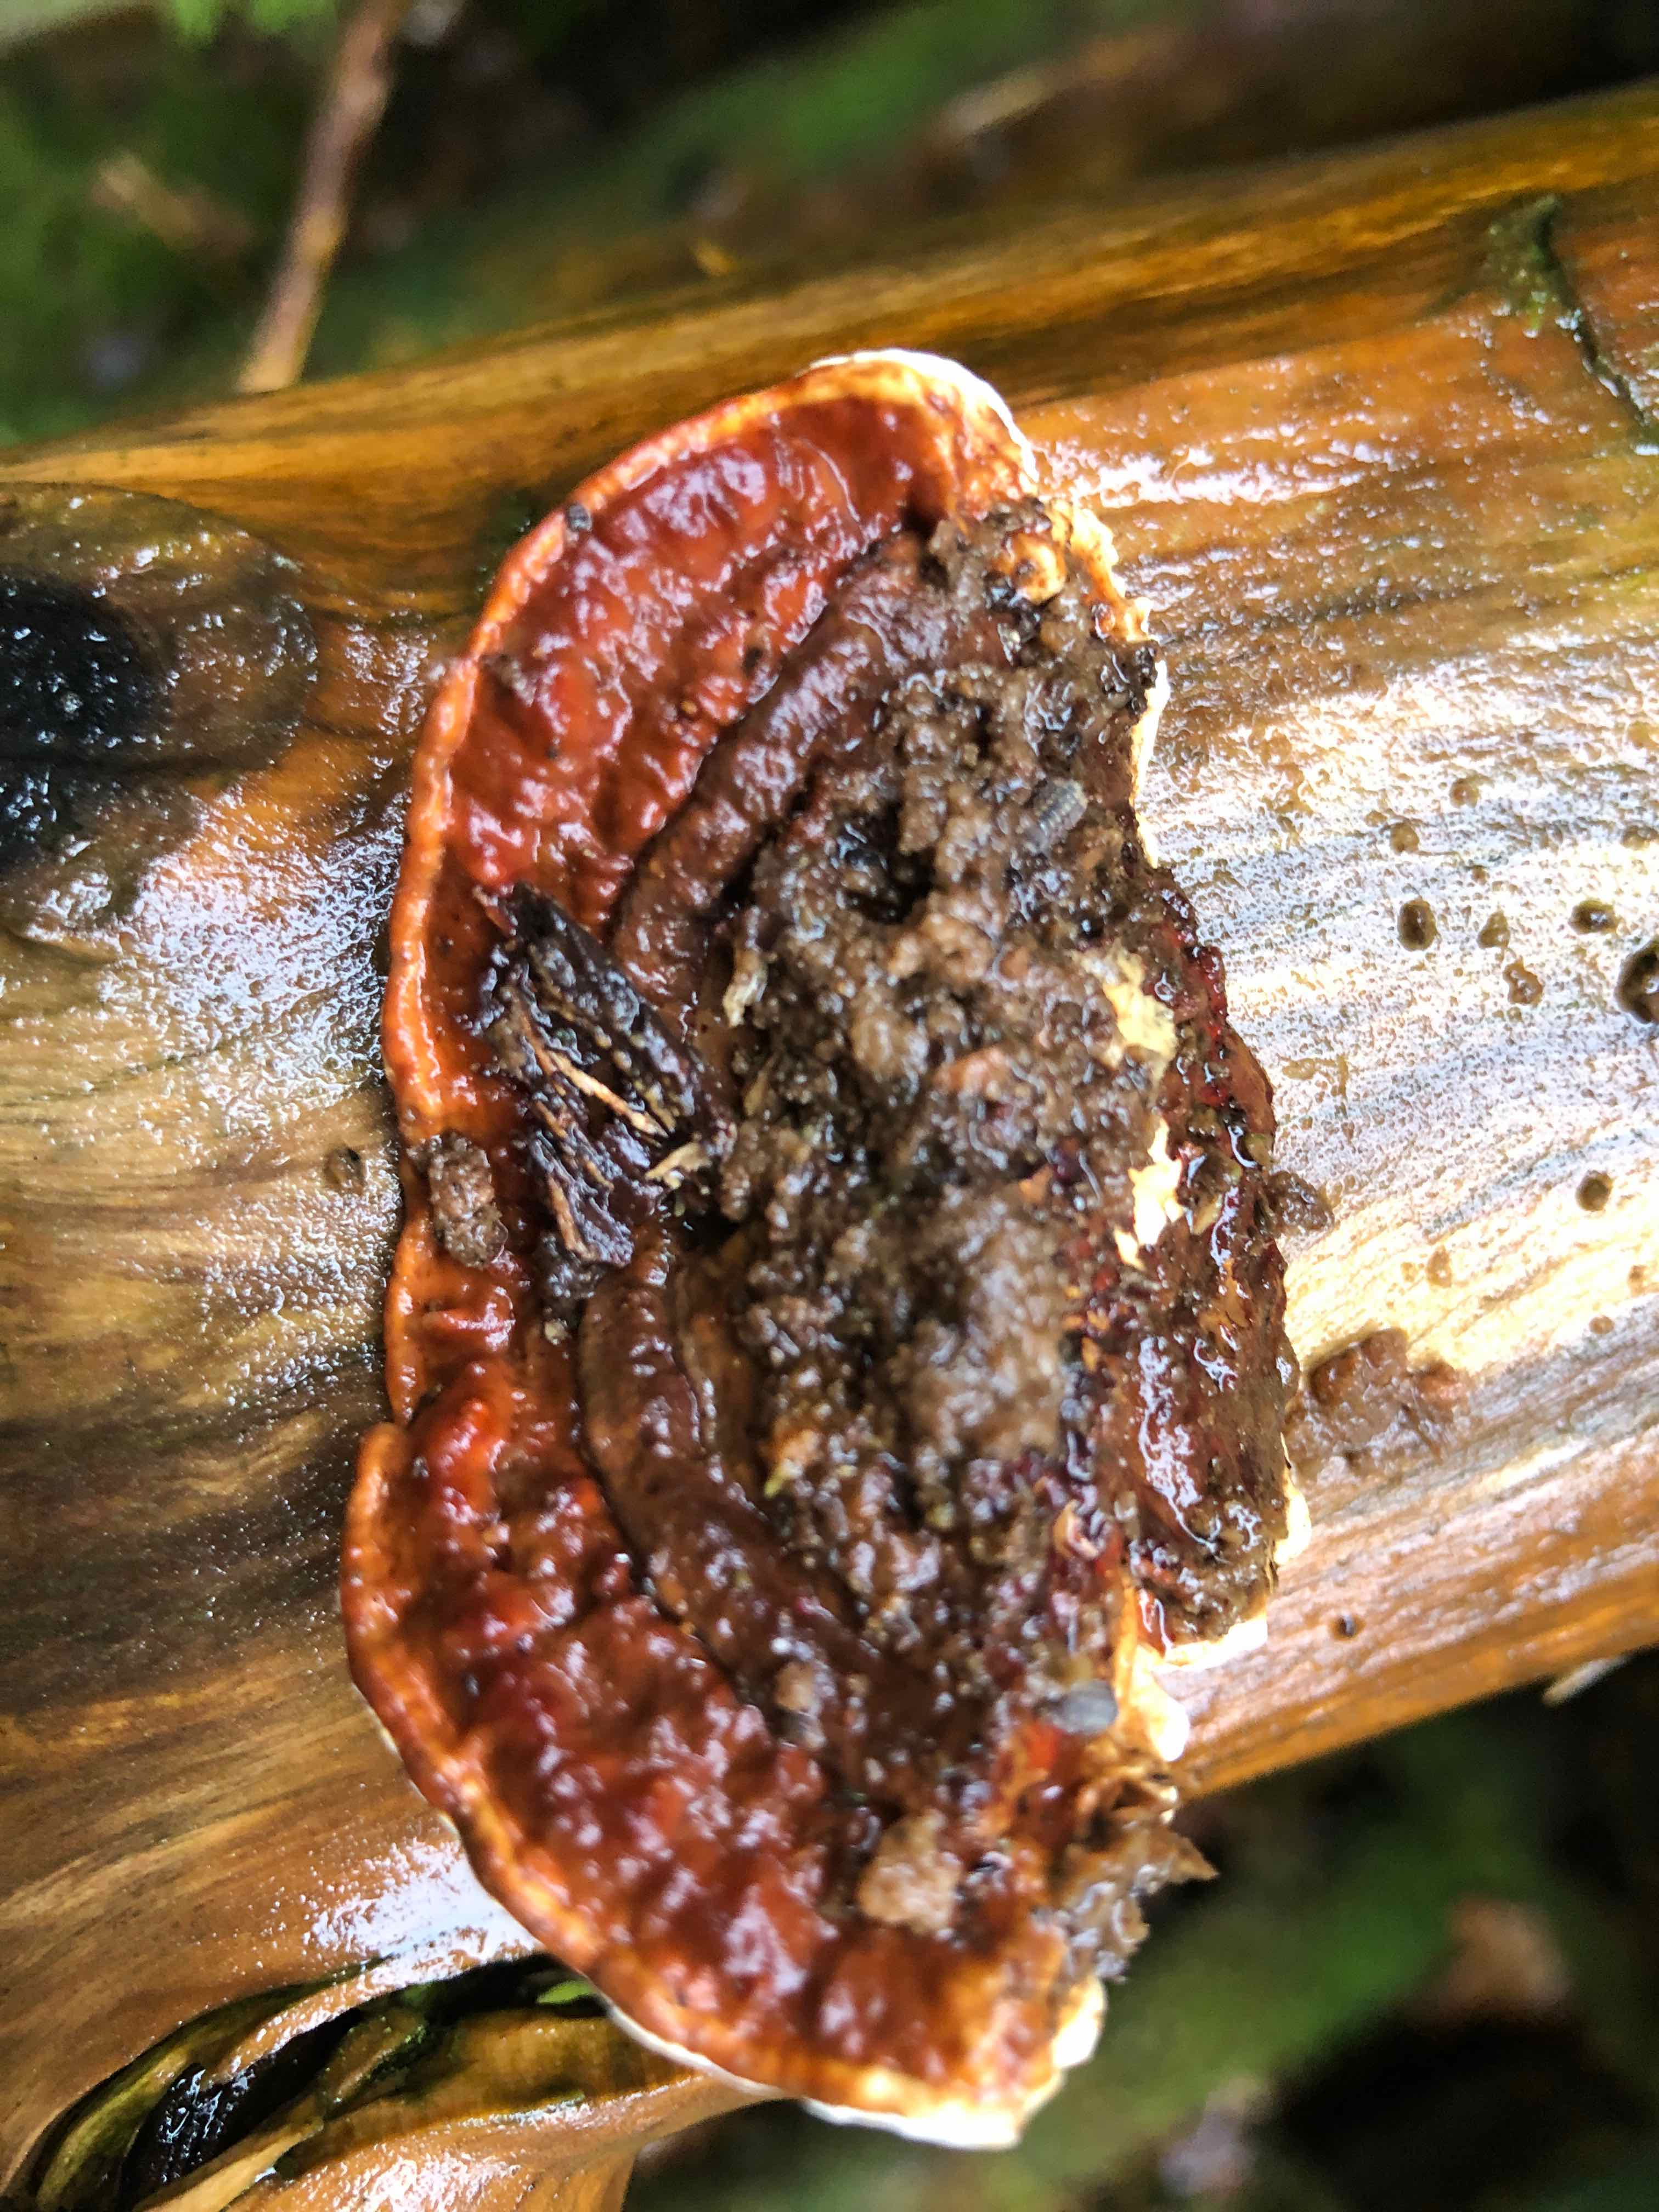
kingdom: Fungi
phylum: Basidiomycota
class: Agaricomycetes
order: Russulales
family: Bondarzewiaceae
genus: Heterobasidion
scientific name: Heterobasidion annosum
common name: almindelig rodfordærver
